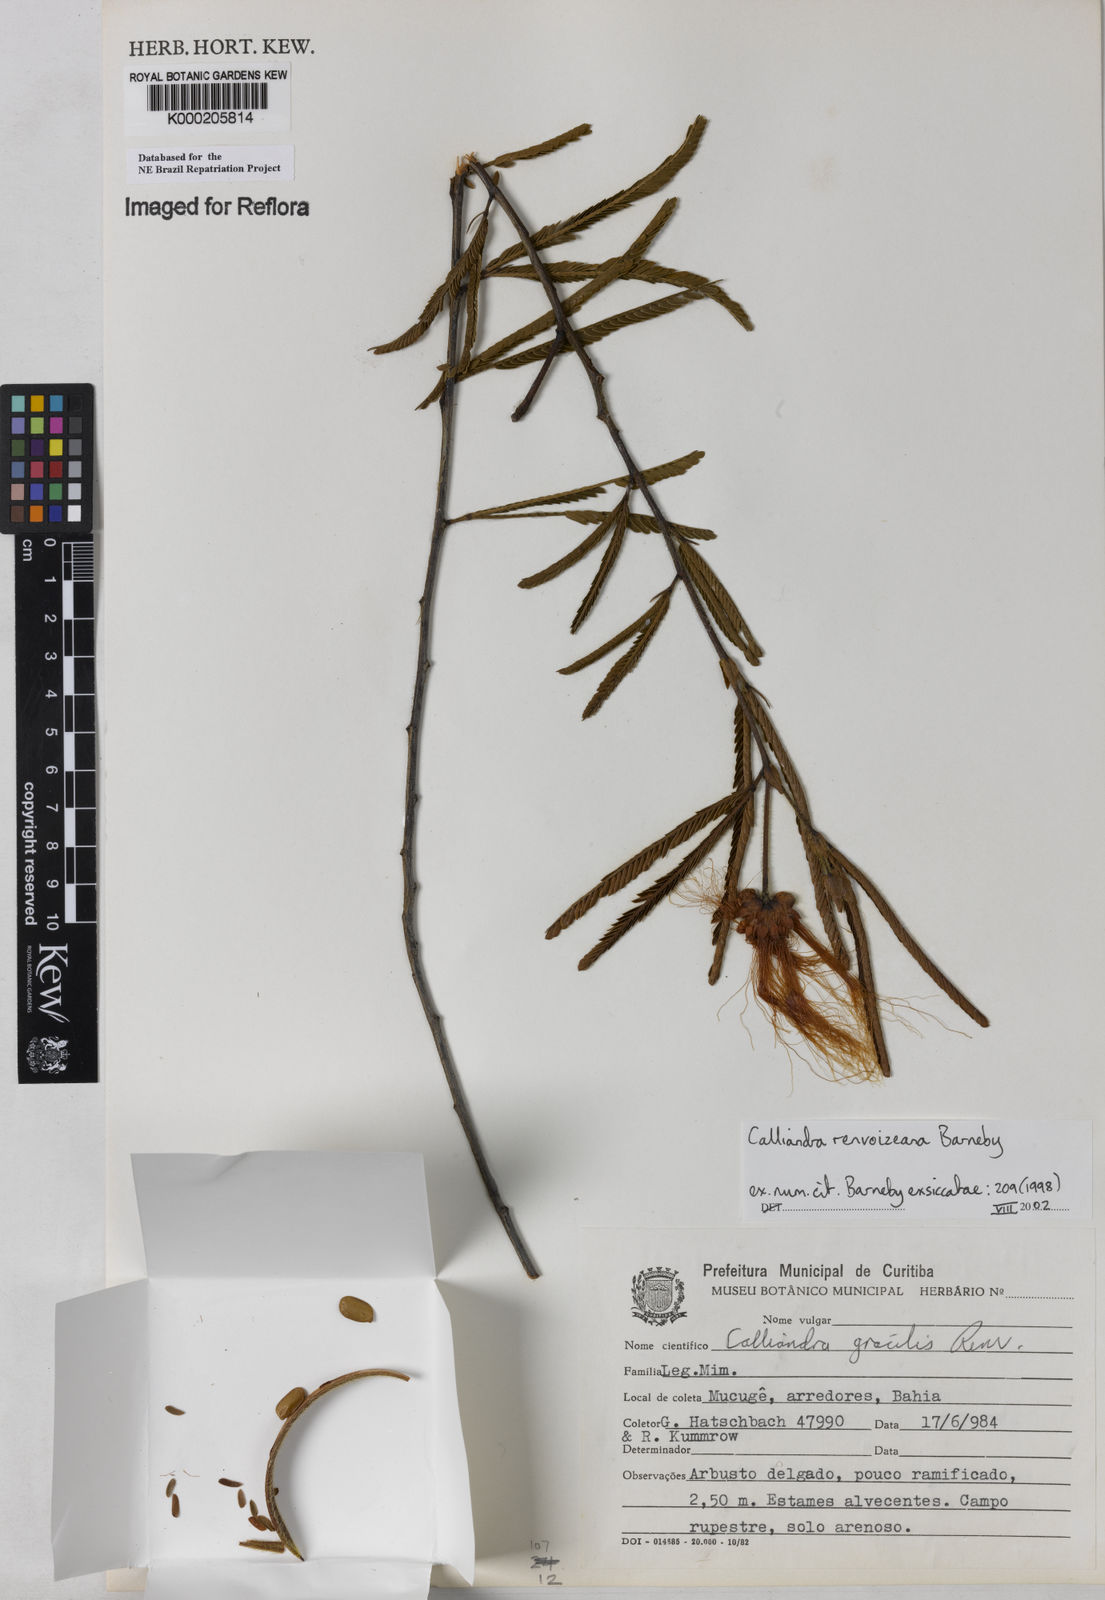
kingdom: Plantae
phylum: Tracheophyta
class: Magnoliopsida
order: Fabales
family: Fabaceae
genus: Calliandra
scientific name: Calliandra renvoizeana
